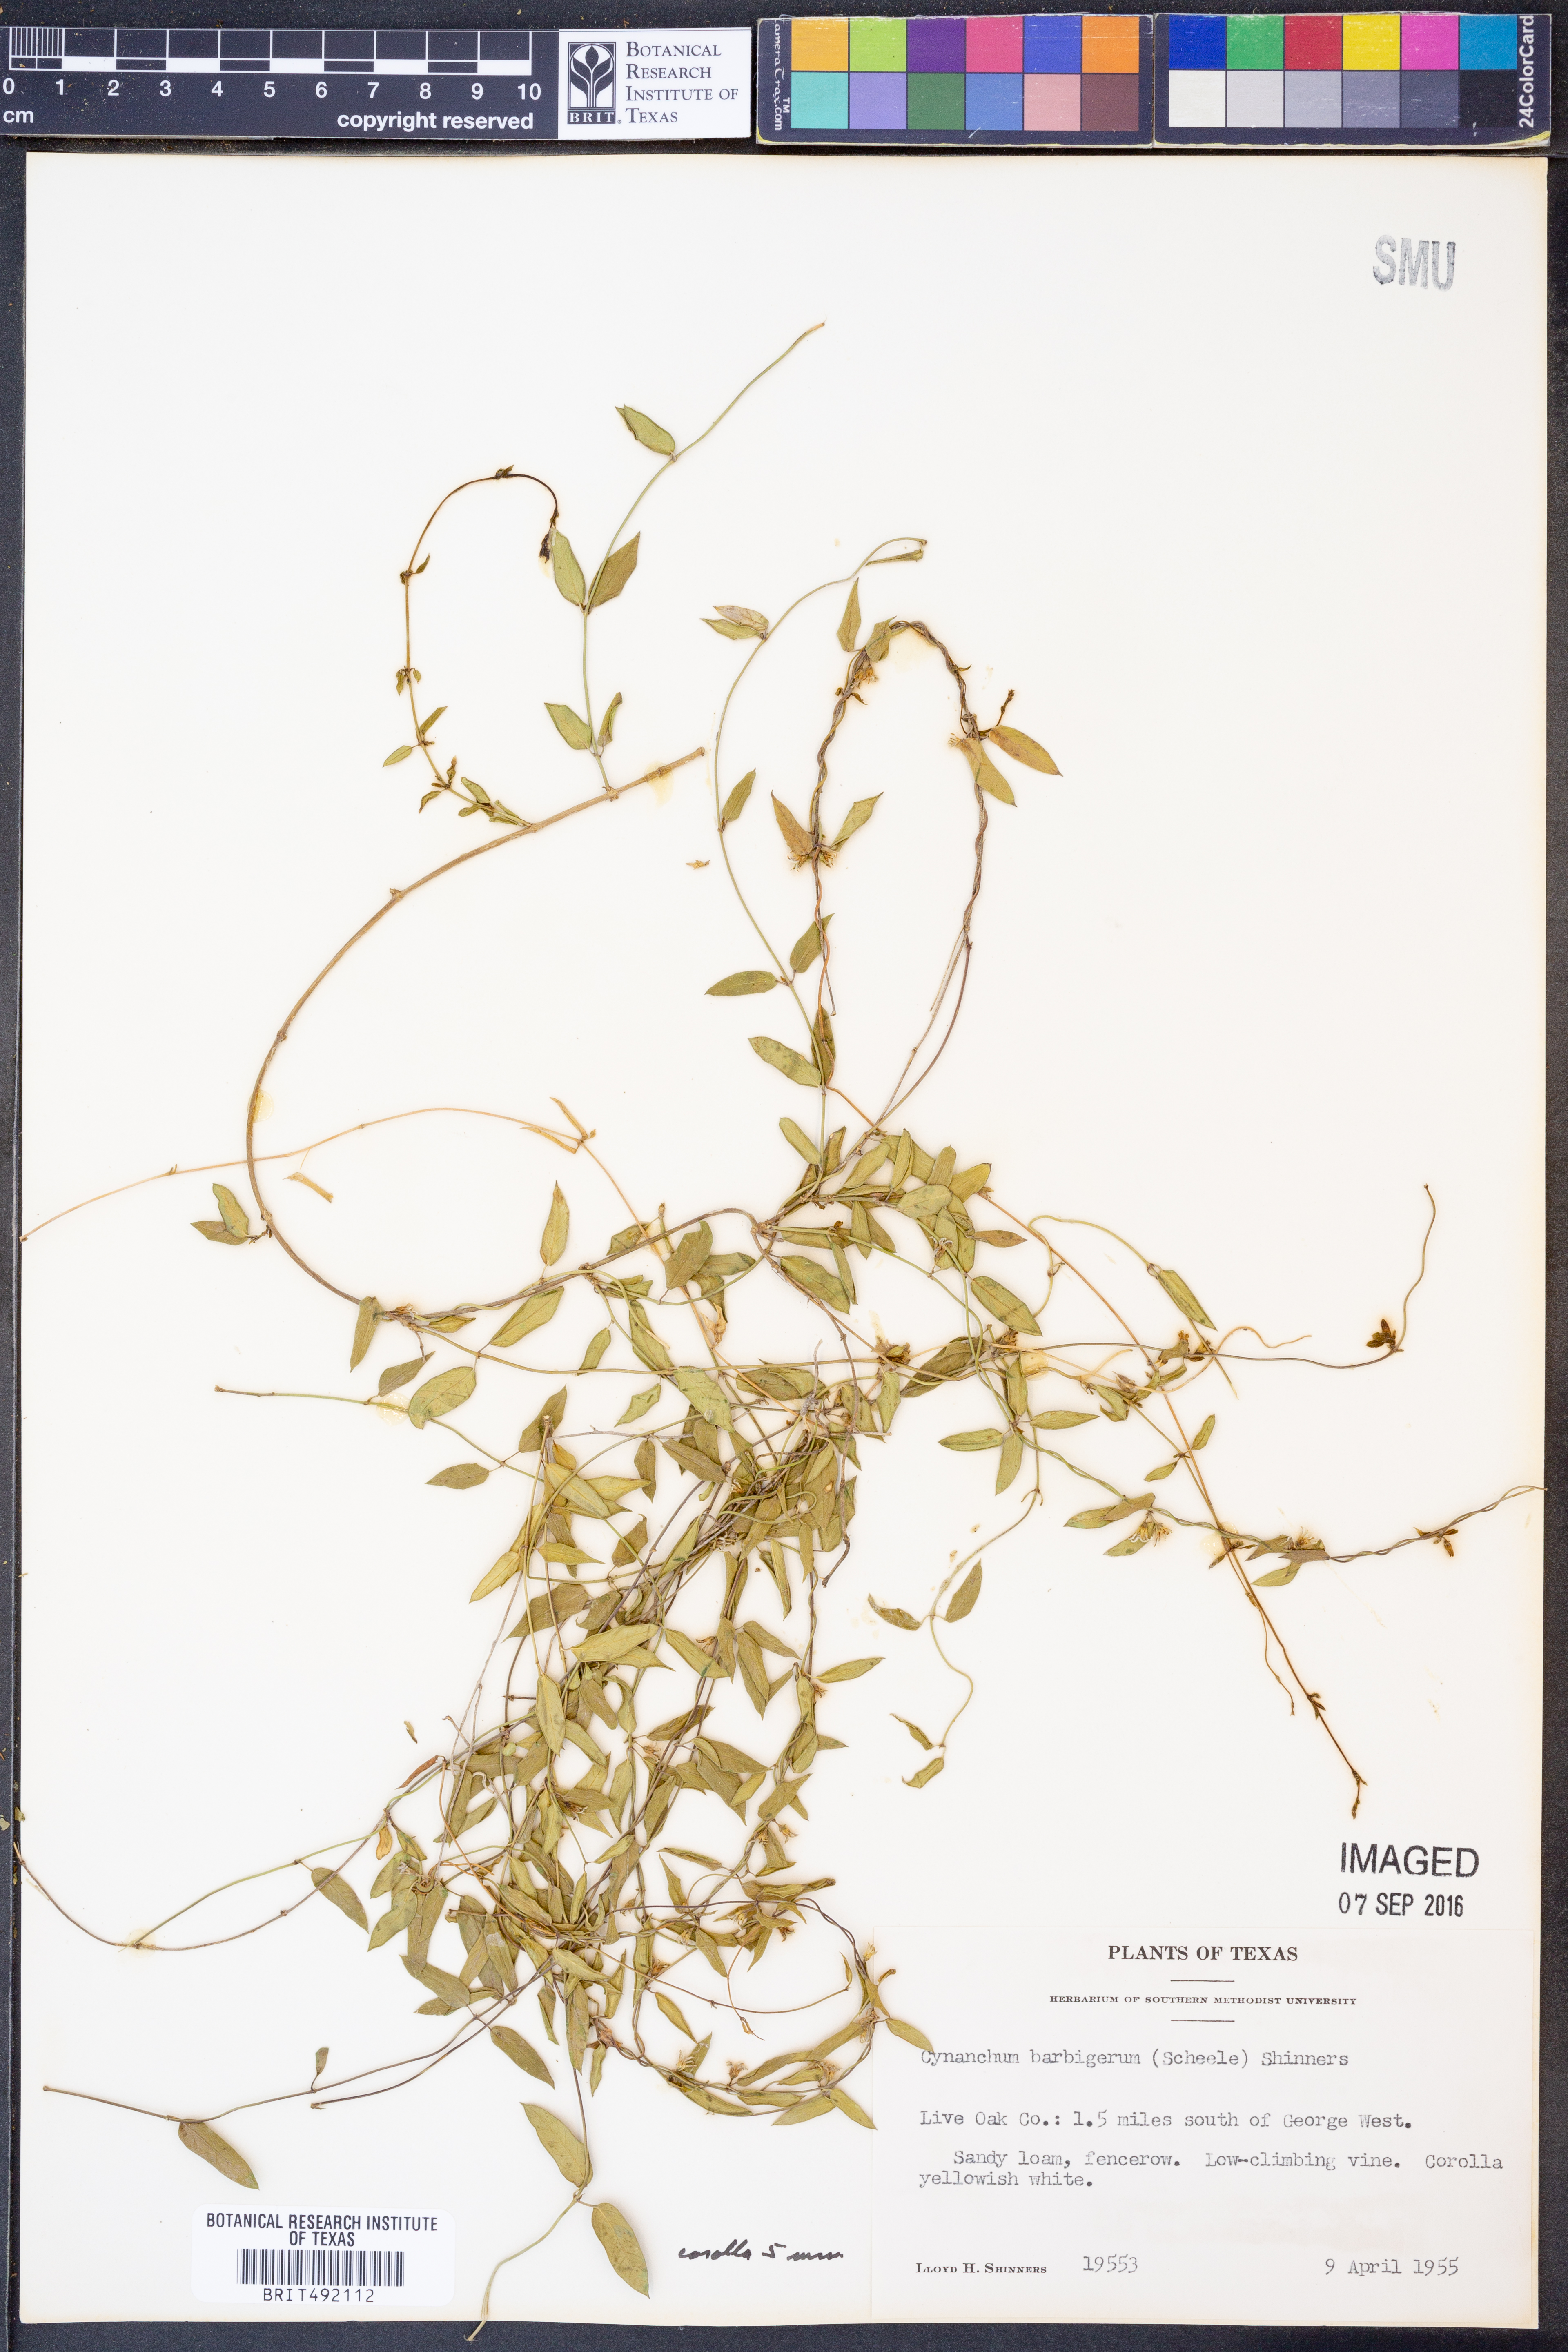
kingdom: Plantae
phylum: Tracheophyta
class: Magnoliopsida
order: Gentianales
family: Apocynaceae
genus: Metastelma
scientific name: Metastelma barbigerum
